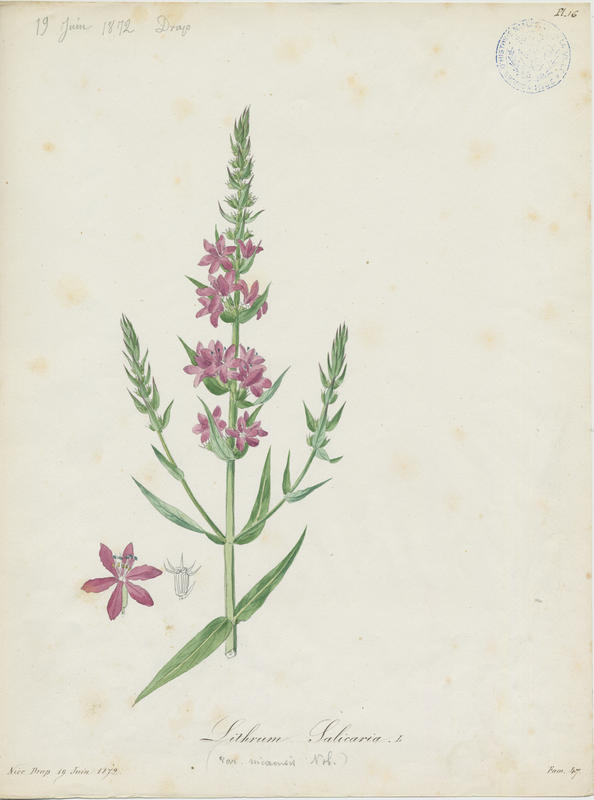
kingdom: Plantae
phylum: Tracheophyta
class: Magnoliopsida
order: Myrtales
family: Lythraceae
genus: Lythrum
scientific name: Lythrum salicaria
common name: Purple loosestrife
